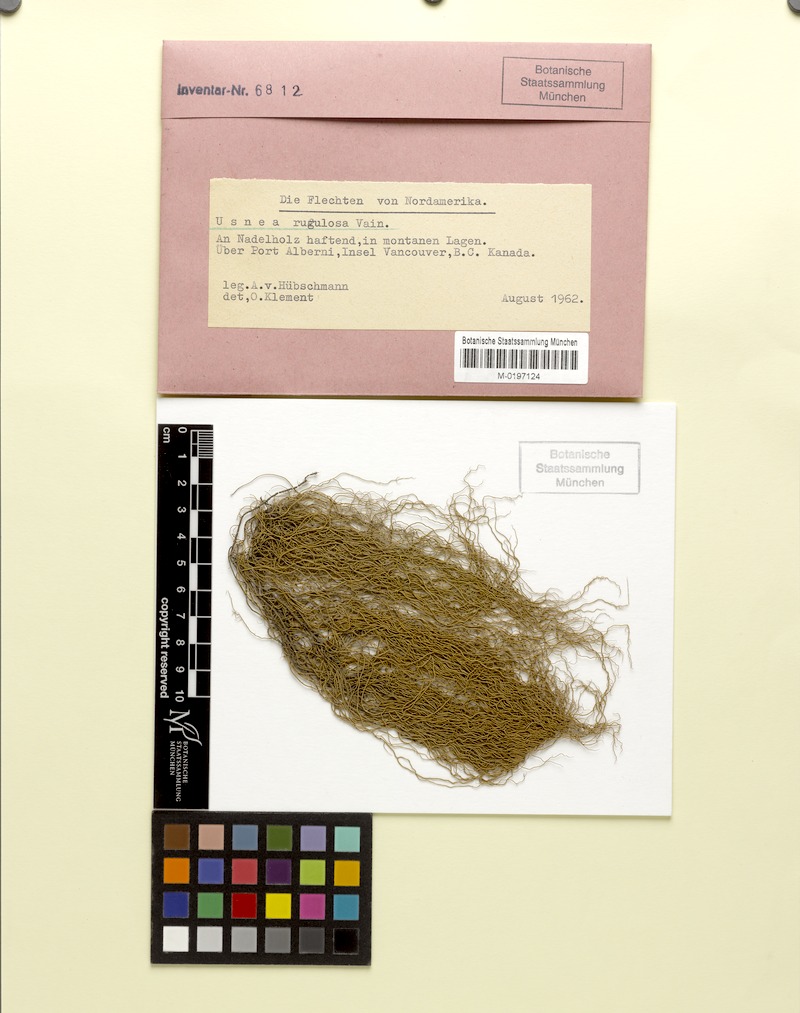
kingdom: Fungi
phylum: Ascomycota
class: Lecanoromycetes
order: Lecanorales
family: Parmeliaceae
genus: Usnea
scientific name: Usnea barbata
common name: Old man's beard lichen
